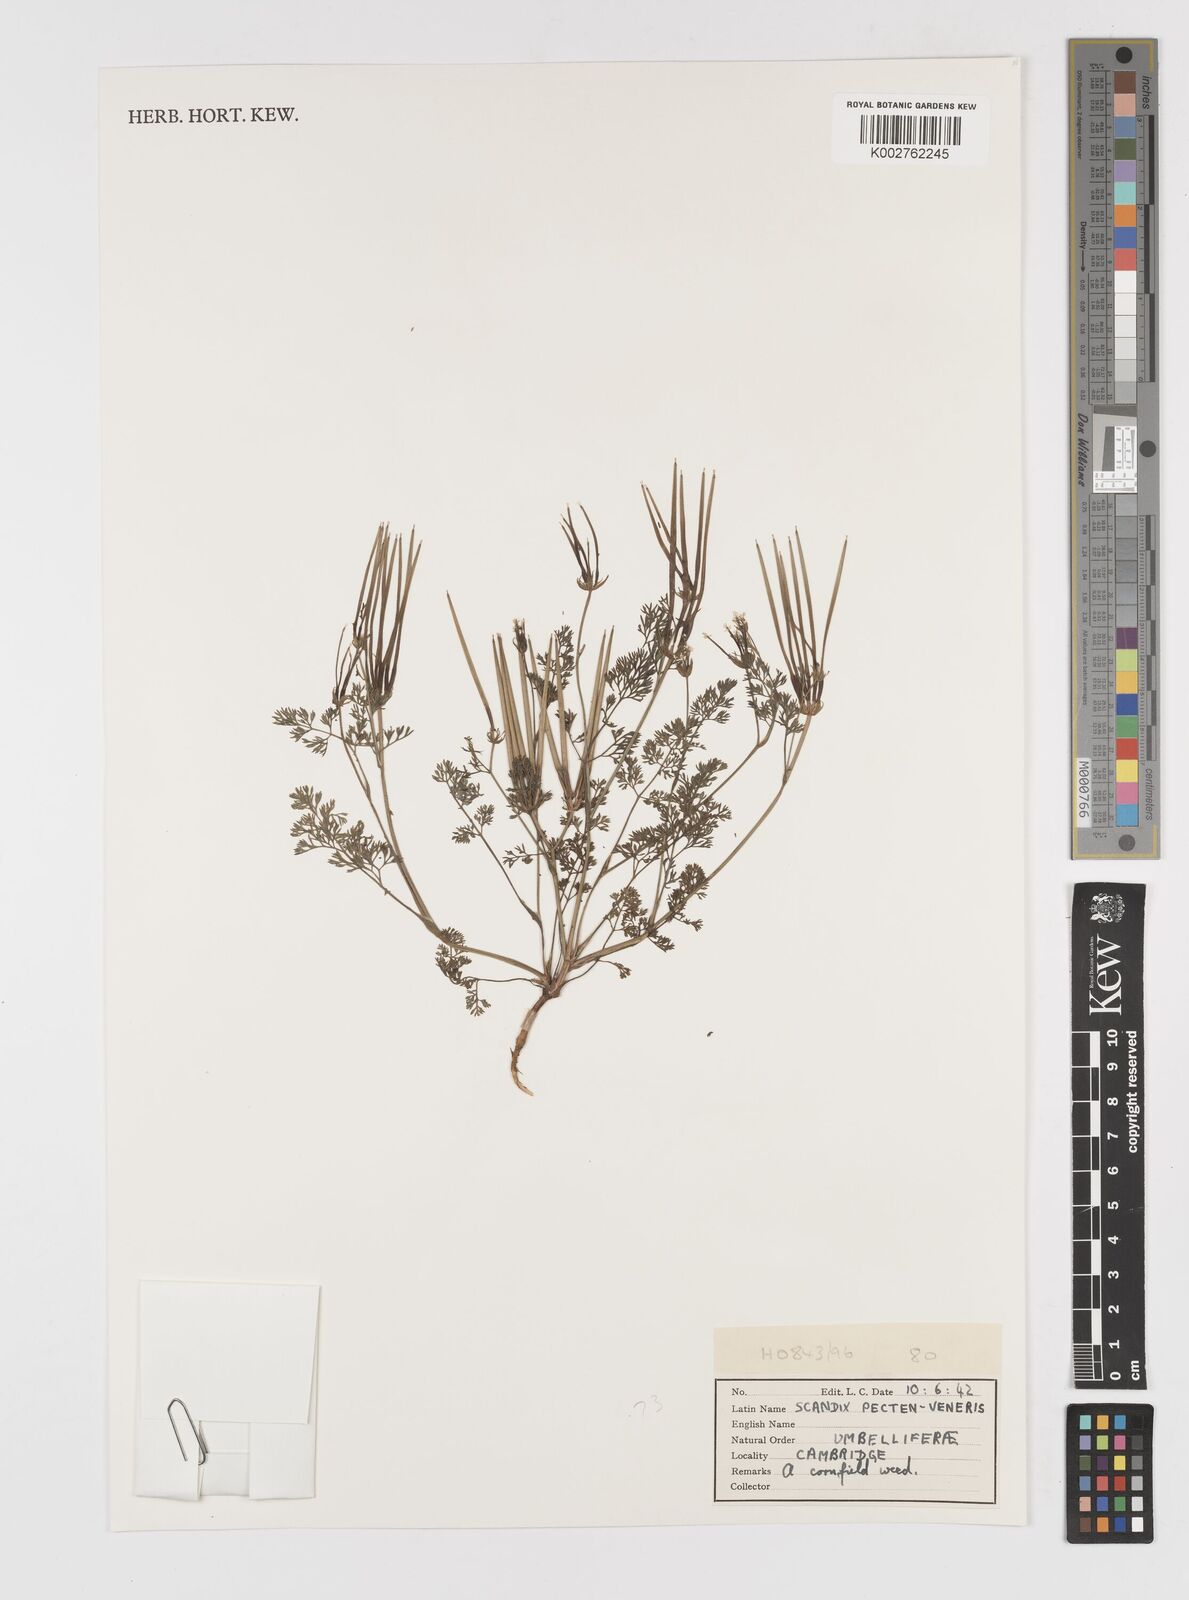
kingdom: Plantae
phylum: Tracheophyta
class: Magnoliopsida
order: Apiales
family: Apiaceae
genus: Scandix
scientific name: Scandix pecten-veneris
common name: Shepherd's-needle
